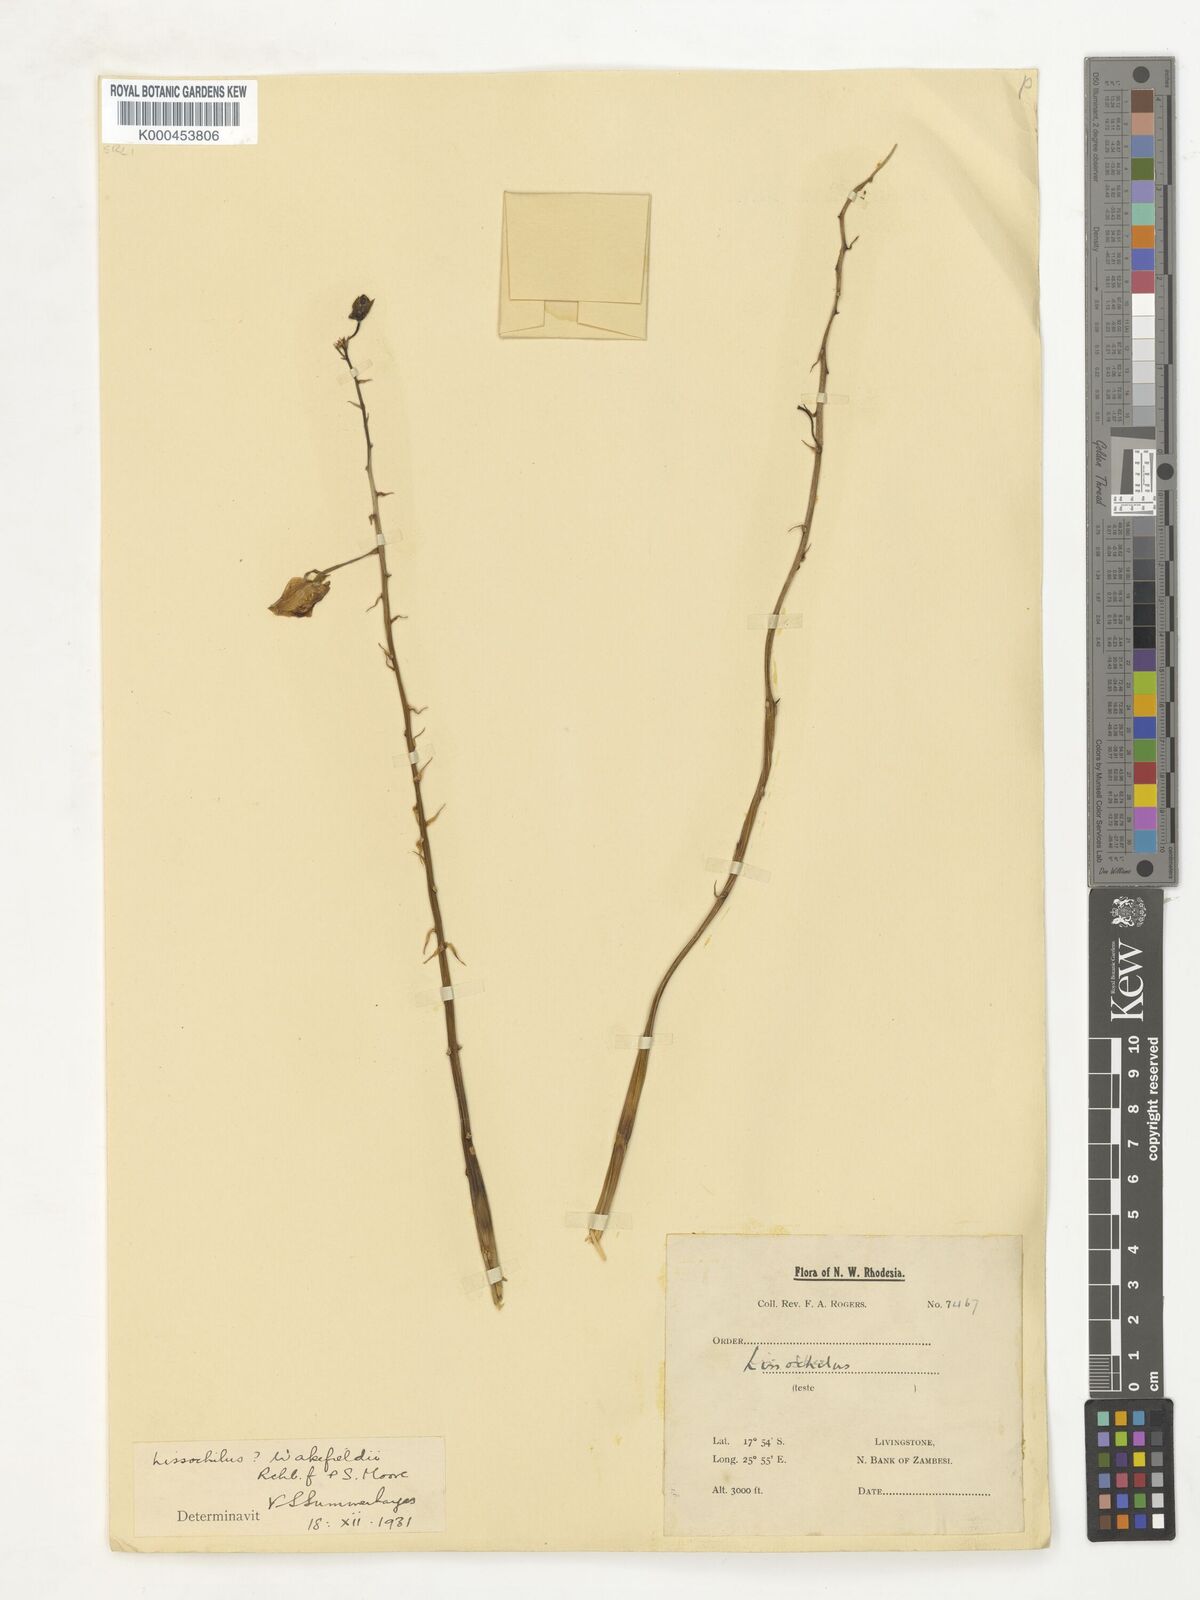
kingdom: Plantae
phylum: Tracheophyta
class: Liliopsida
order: Asparagales
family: Orchidaceae
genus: Eulophia
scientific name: Eulophia speciosa
